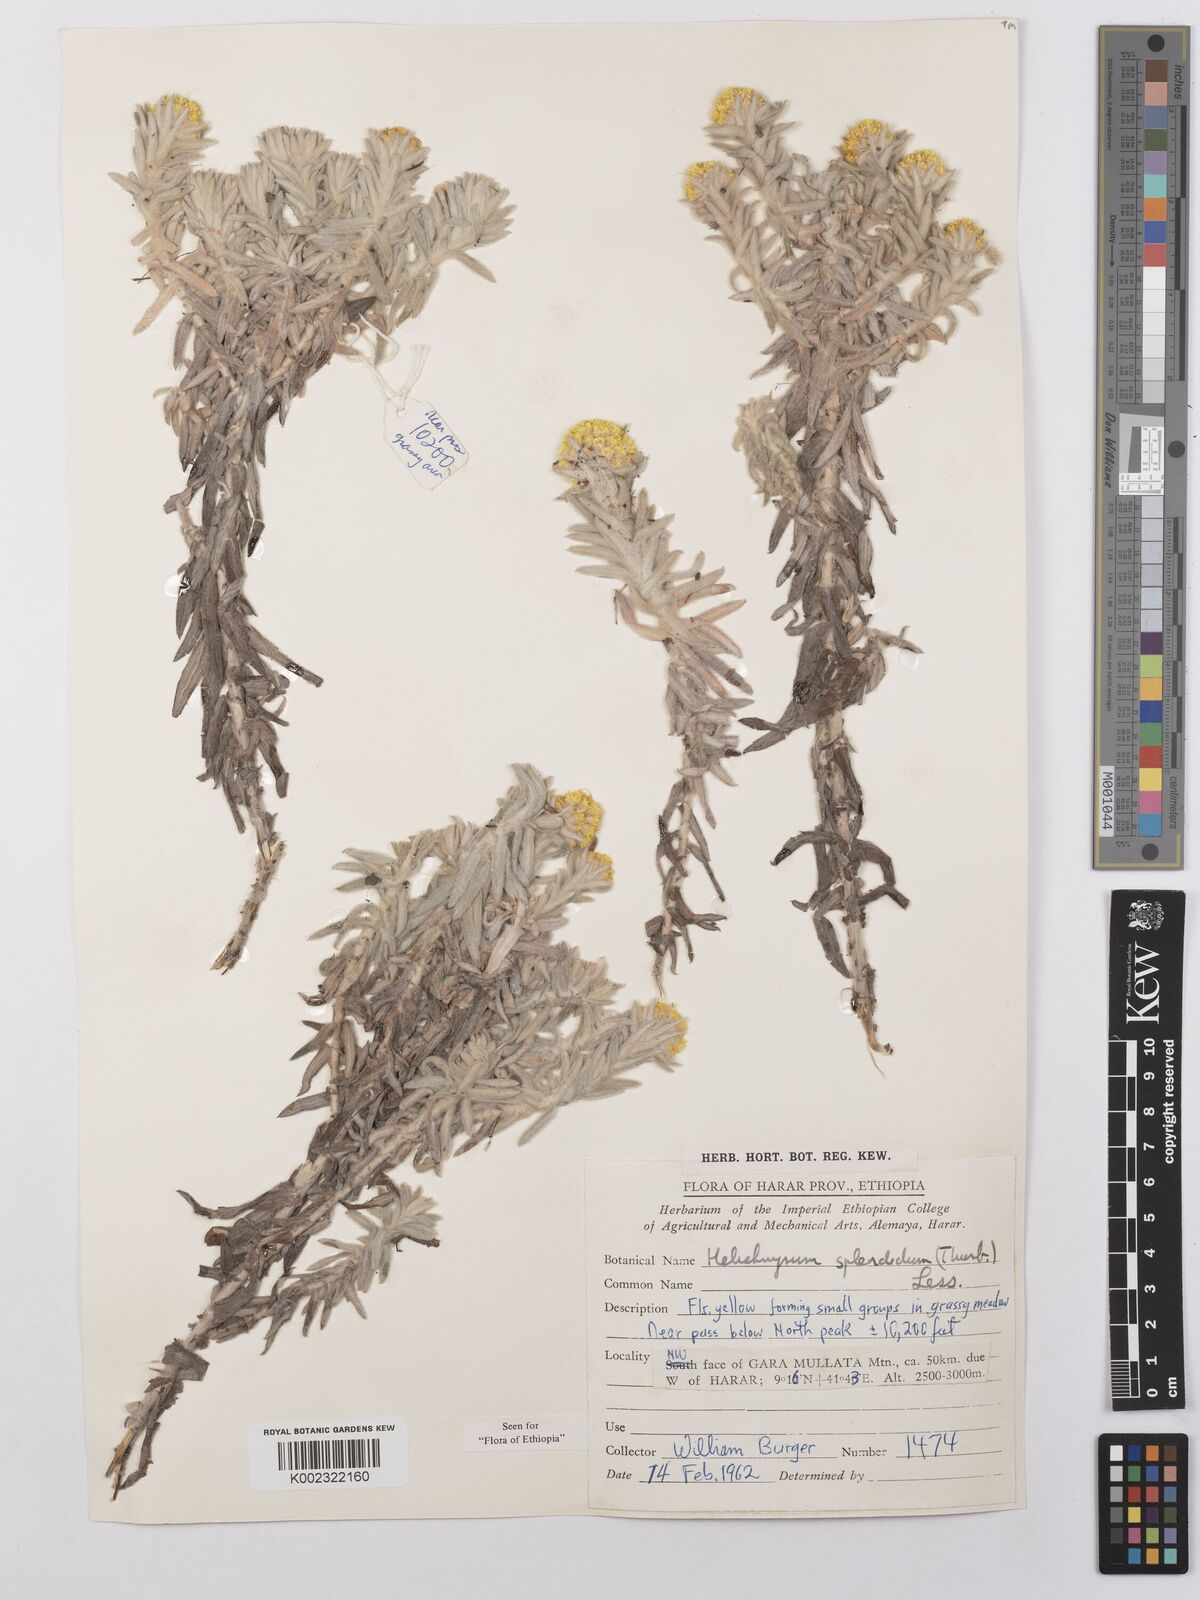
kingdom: Plantae
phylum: Tracheophyta
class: Magnoliopsida
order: Asterales
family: Asteraceae
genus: Helichrysum
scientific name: Helichrysum splendidum
